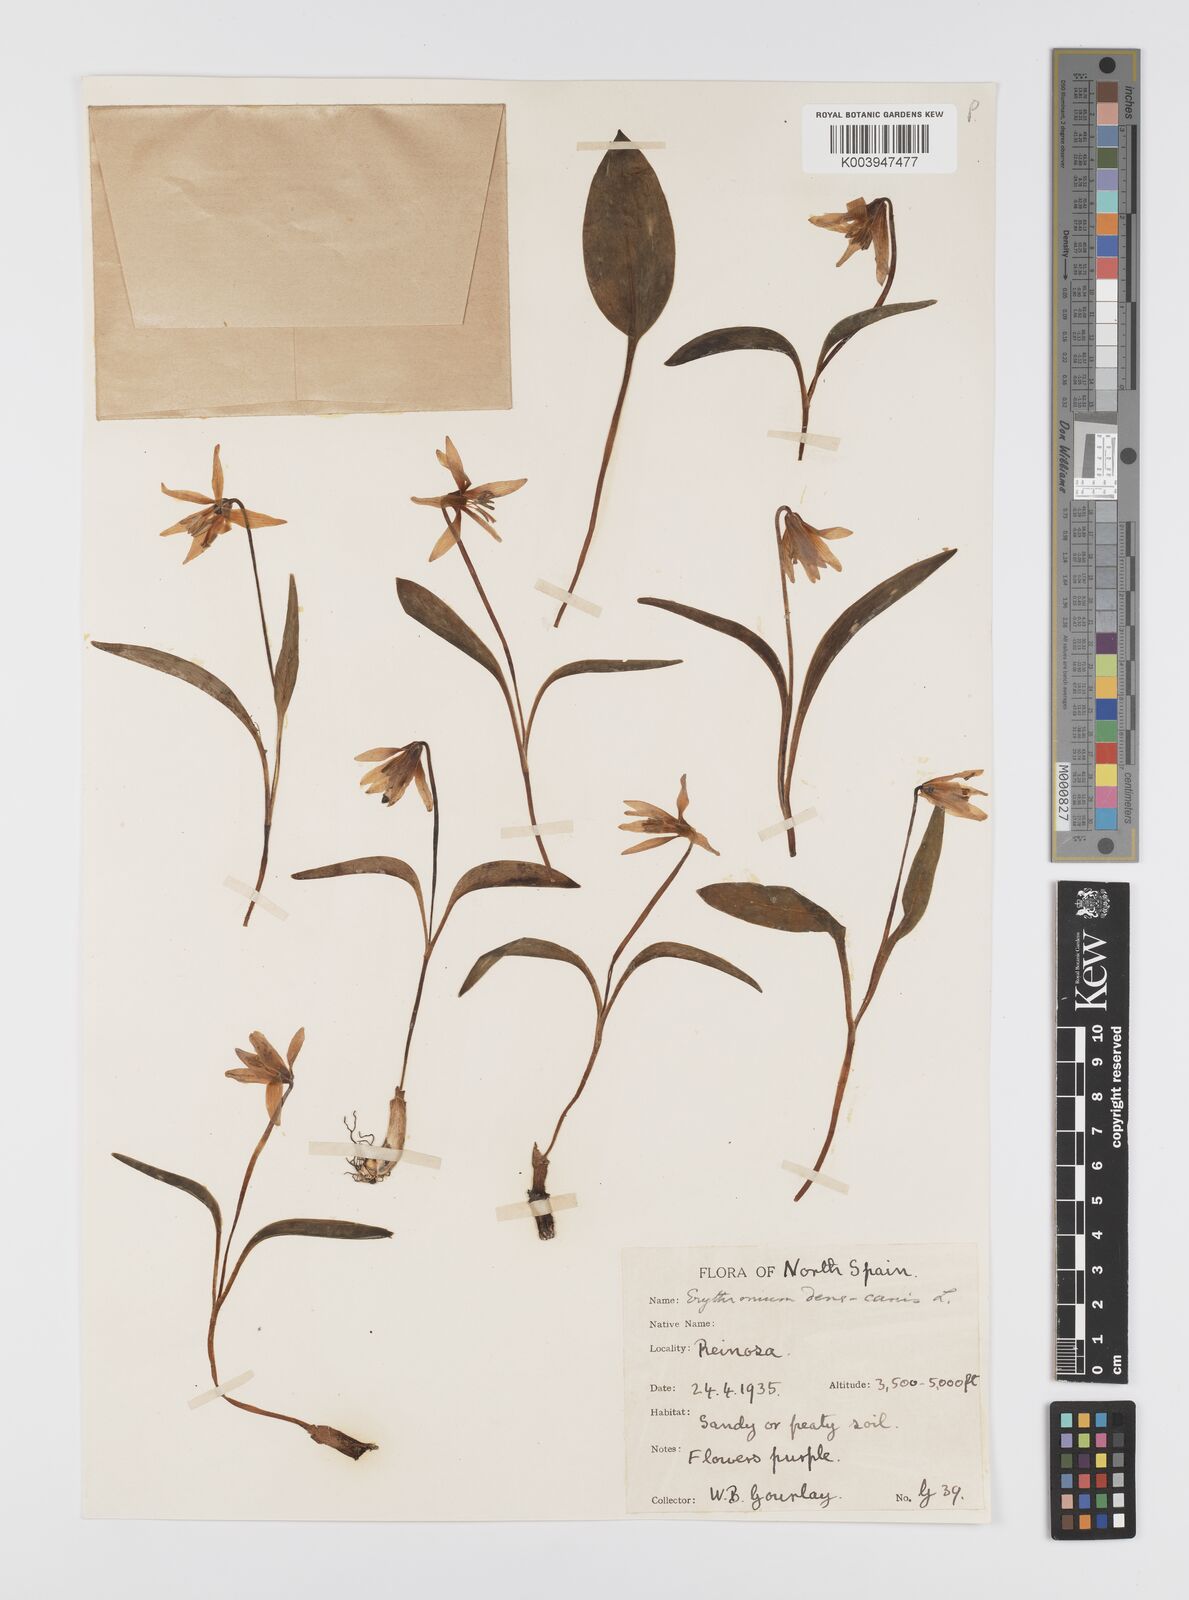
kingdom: Plantae
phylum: Tracheophyta
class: Liliopsida
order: Liliales
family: Liliaceae
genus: Erythronium
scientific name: Erythronium dens-canis
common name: Dog's-tooth-violet
